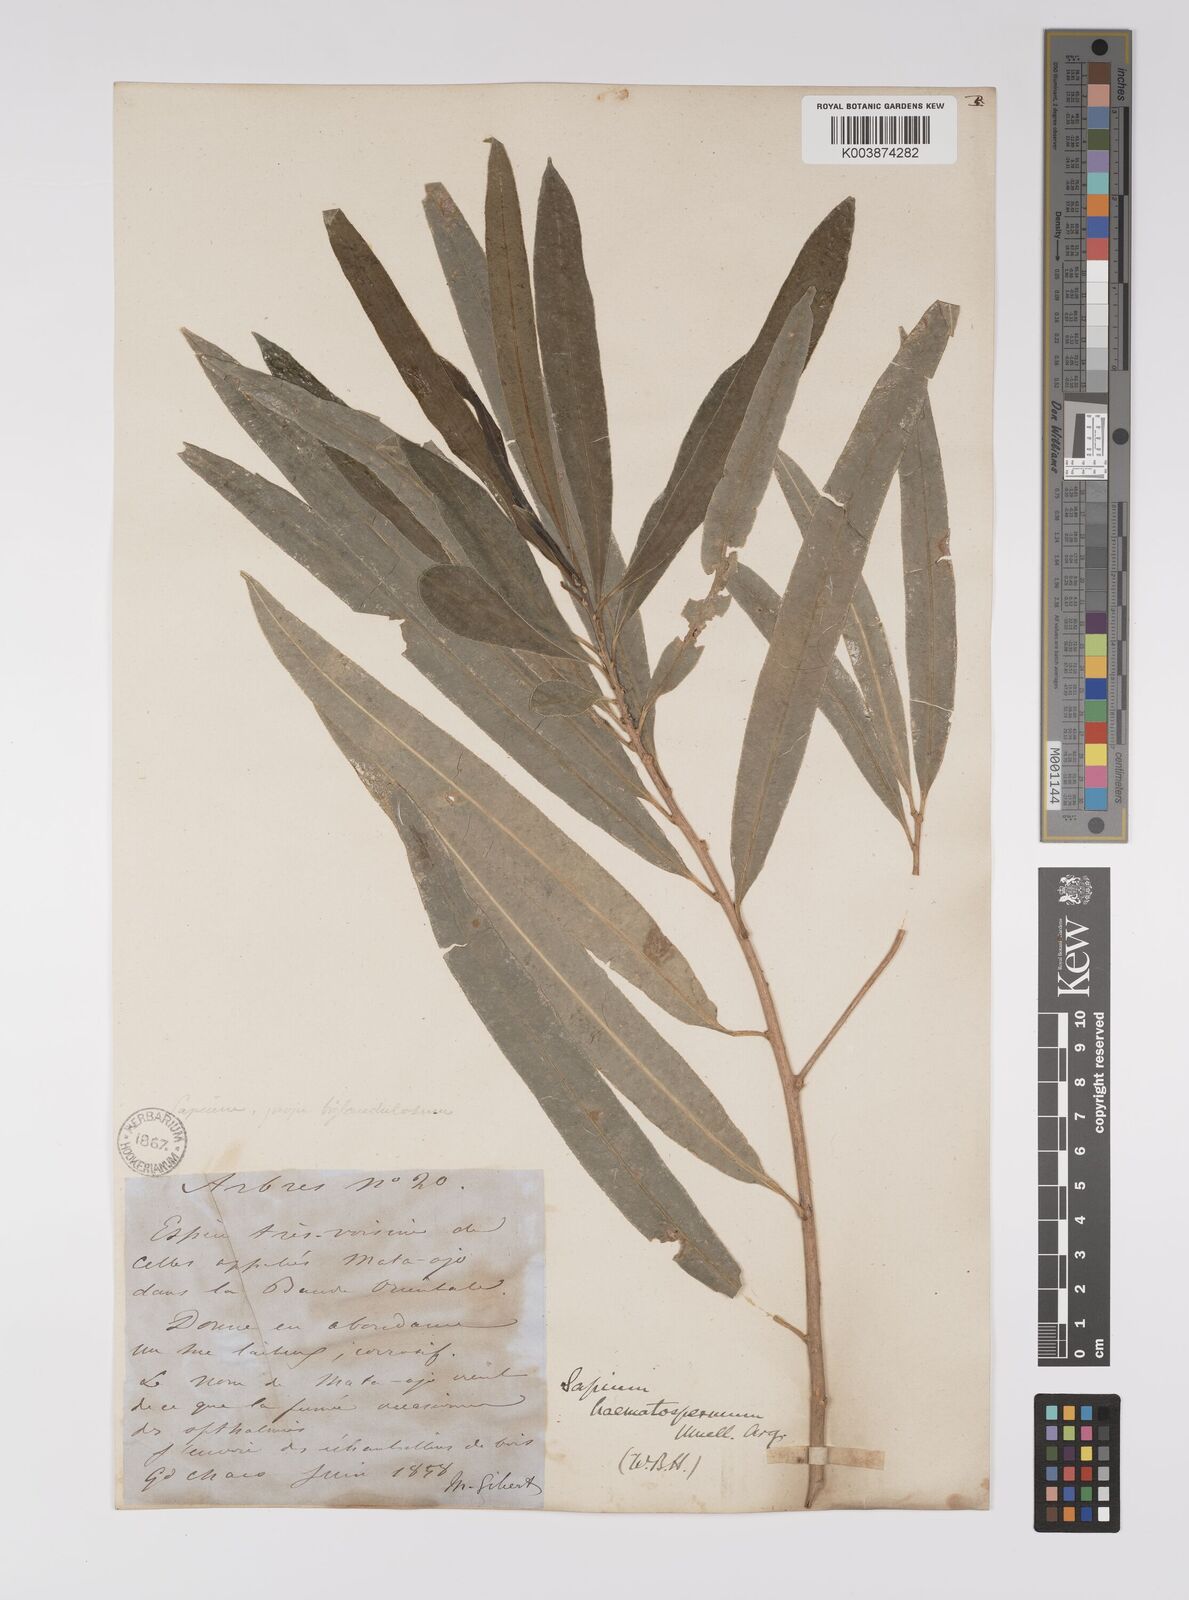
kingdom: Plantae
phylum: Tracheophyta
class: Magnoliopsida
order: Malpighiales
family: Euphorbiaceae
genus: Sapium
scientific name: Sapium haematospermum
